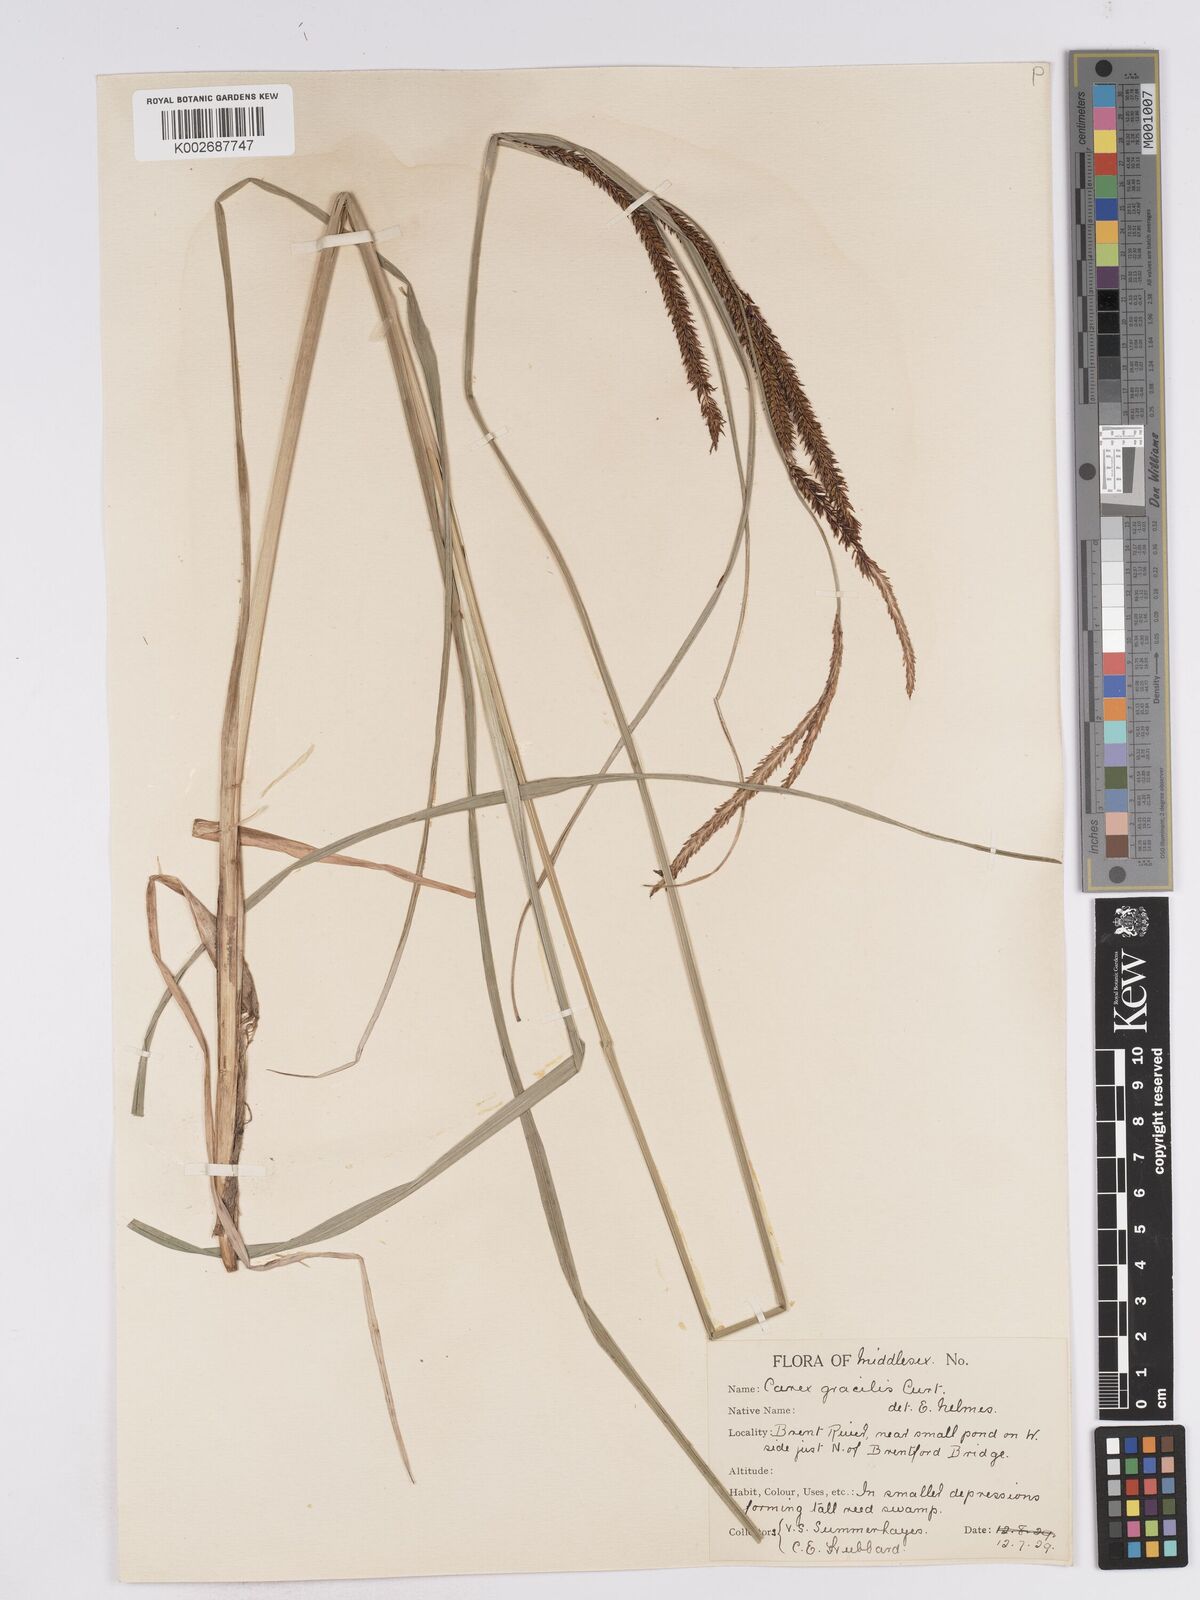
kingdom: Plantae
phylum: Tracheophyta
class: Liliopsida
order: Poales
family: Cyperaceae
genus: Carex
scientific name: Carex acuta
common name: Slender tufted-sedge
